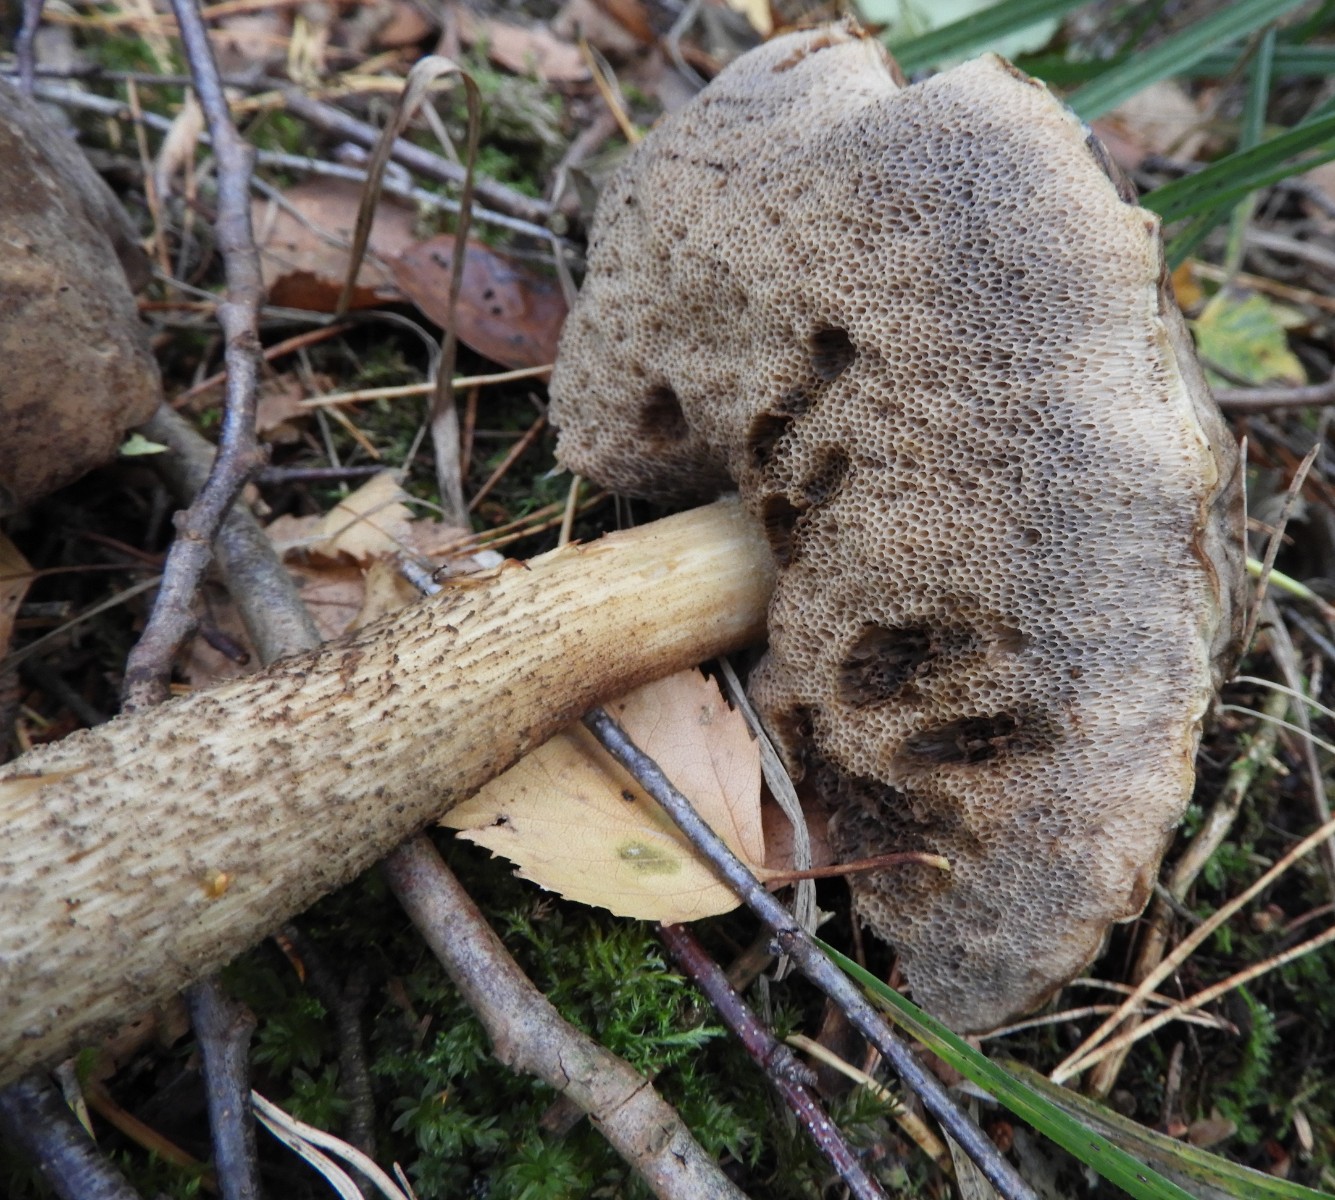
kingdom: Fungi
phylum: Basidiomycota
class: Agaricomycetes
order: Boletales
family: Boletaceae
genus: Leccinum
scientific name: Leccinum scabrum
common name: brun skælrørhat
